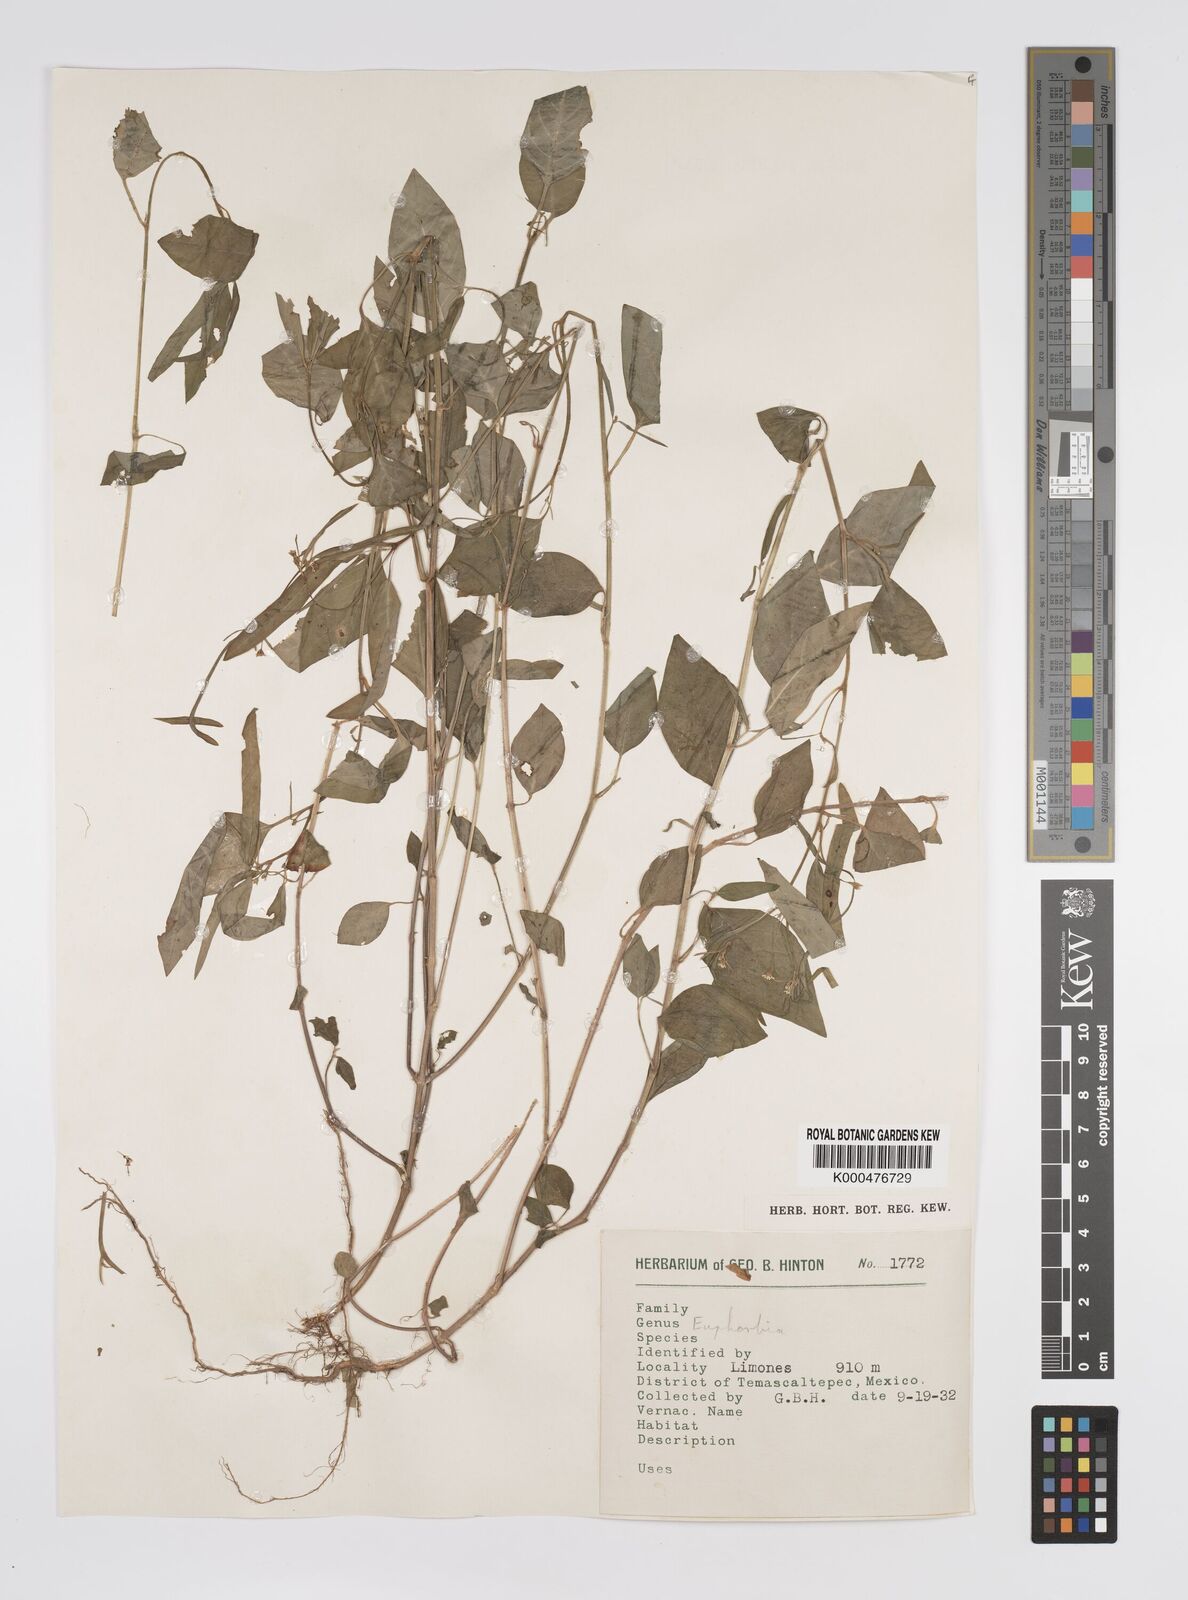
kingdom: Plantae
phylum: Tracheophyta
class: Magnoliopsida
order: Malpighiales
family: Euphorbiaceae
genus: Euphorbia
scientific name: Euphorbia
